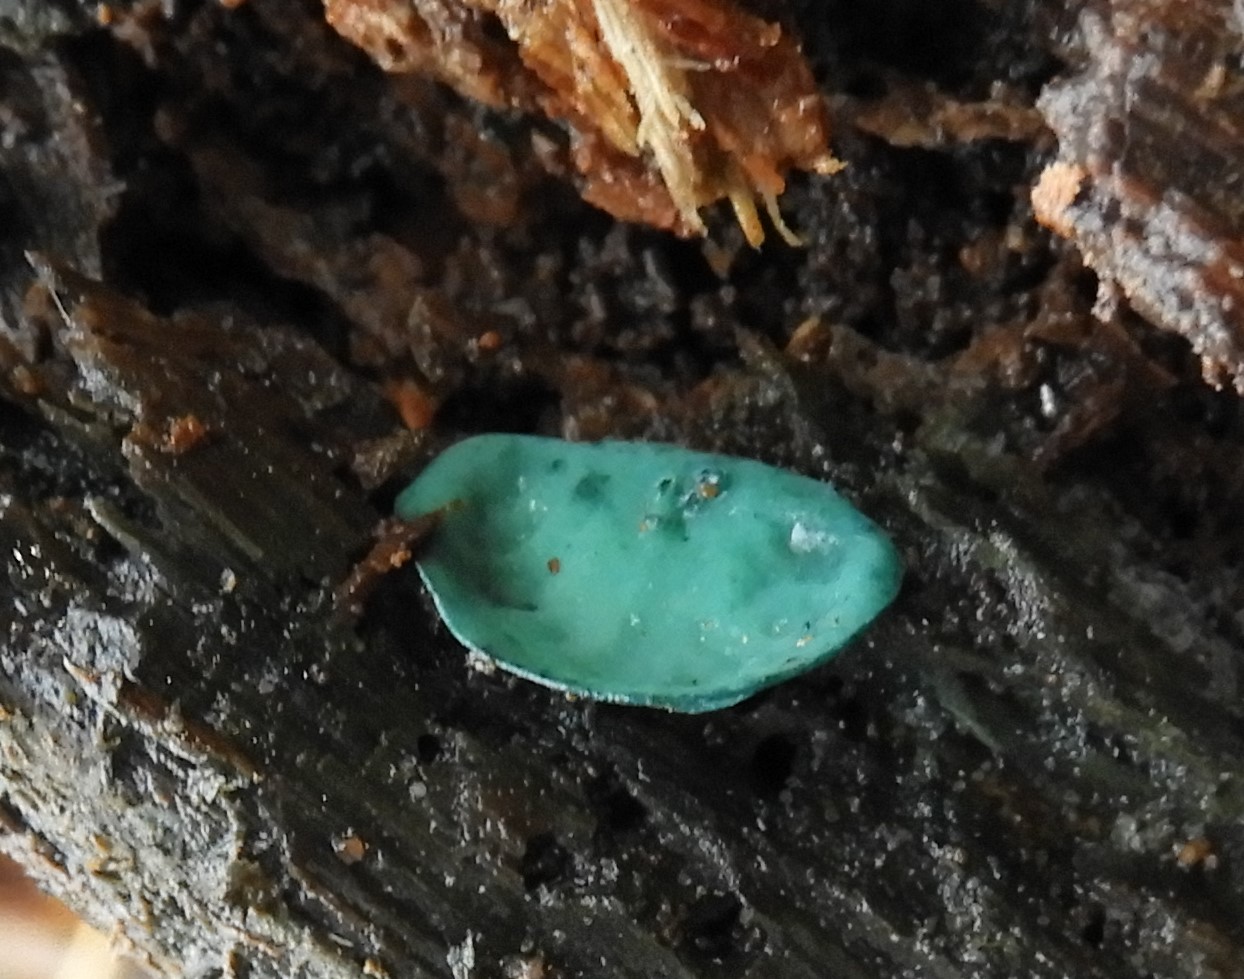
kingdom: Fungi
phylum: Ascomycota
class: Leotiomycetes
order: Helotiales
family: Chlorociboriaceae
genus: Chlorociboria
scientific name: Chlorociboria aeruginascens
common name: almindelig grønskive
